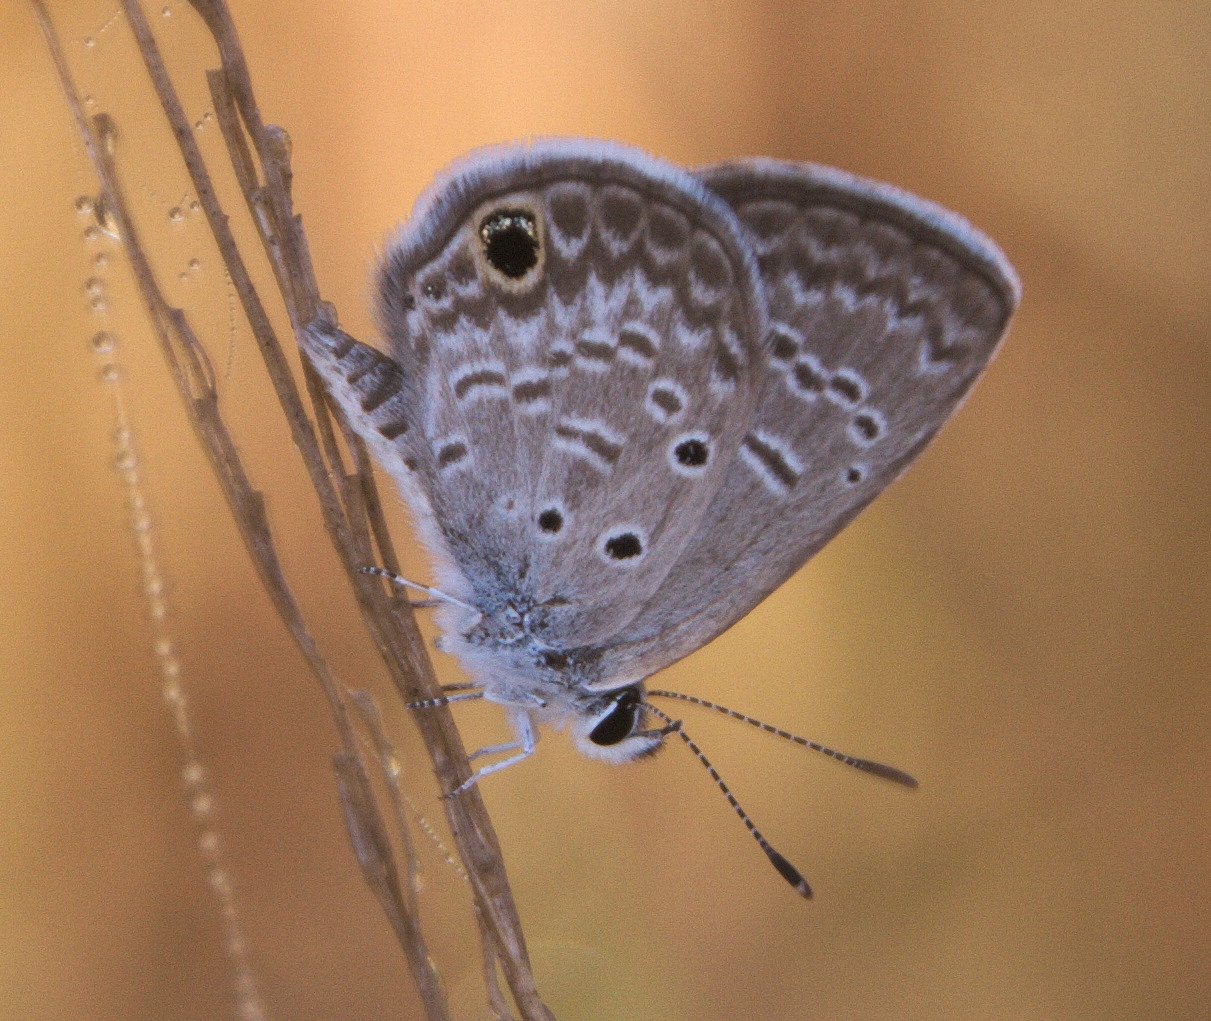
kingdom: Animalia
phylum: Arthropoda
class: Insecta
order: Lepidoptera
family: Lycaenidae
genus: Hemiargus
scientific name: Hemiargus ceraunus
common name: Ceraunus Blue
